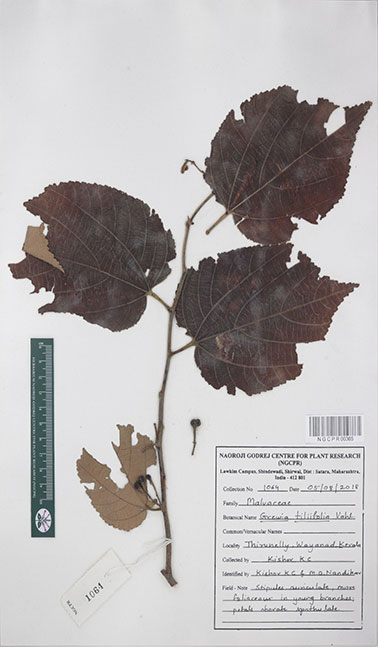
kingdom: Plantae
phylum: Tracheophyta
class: Magnoliopsida
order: Malvales
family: Malvaceae
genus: Grewia
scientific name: Grewia tiliifolia
